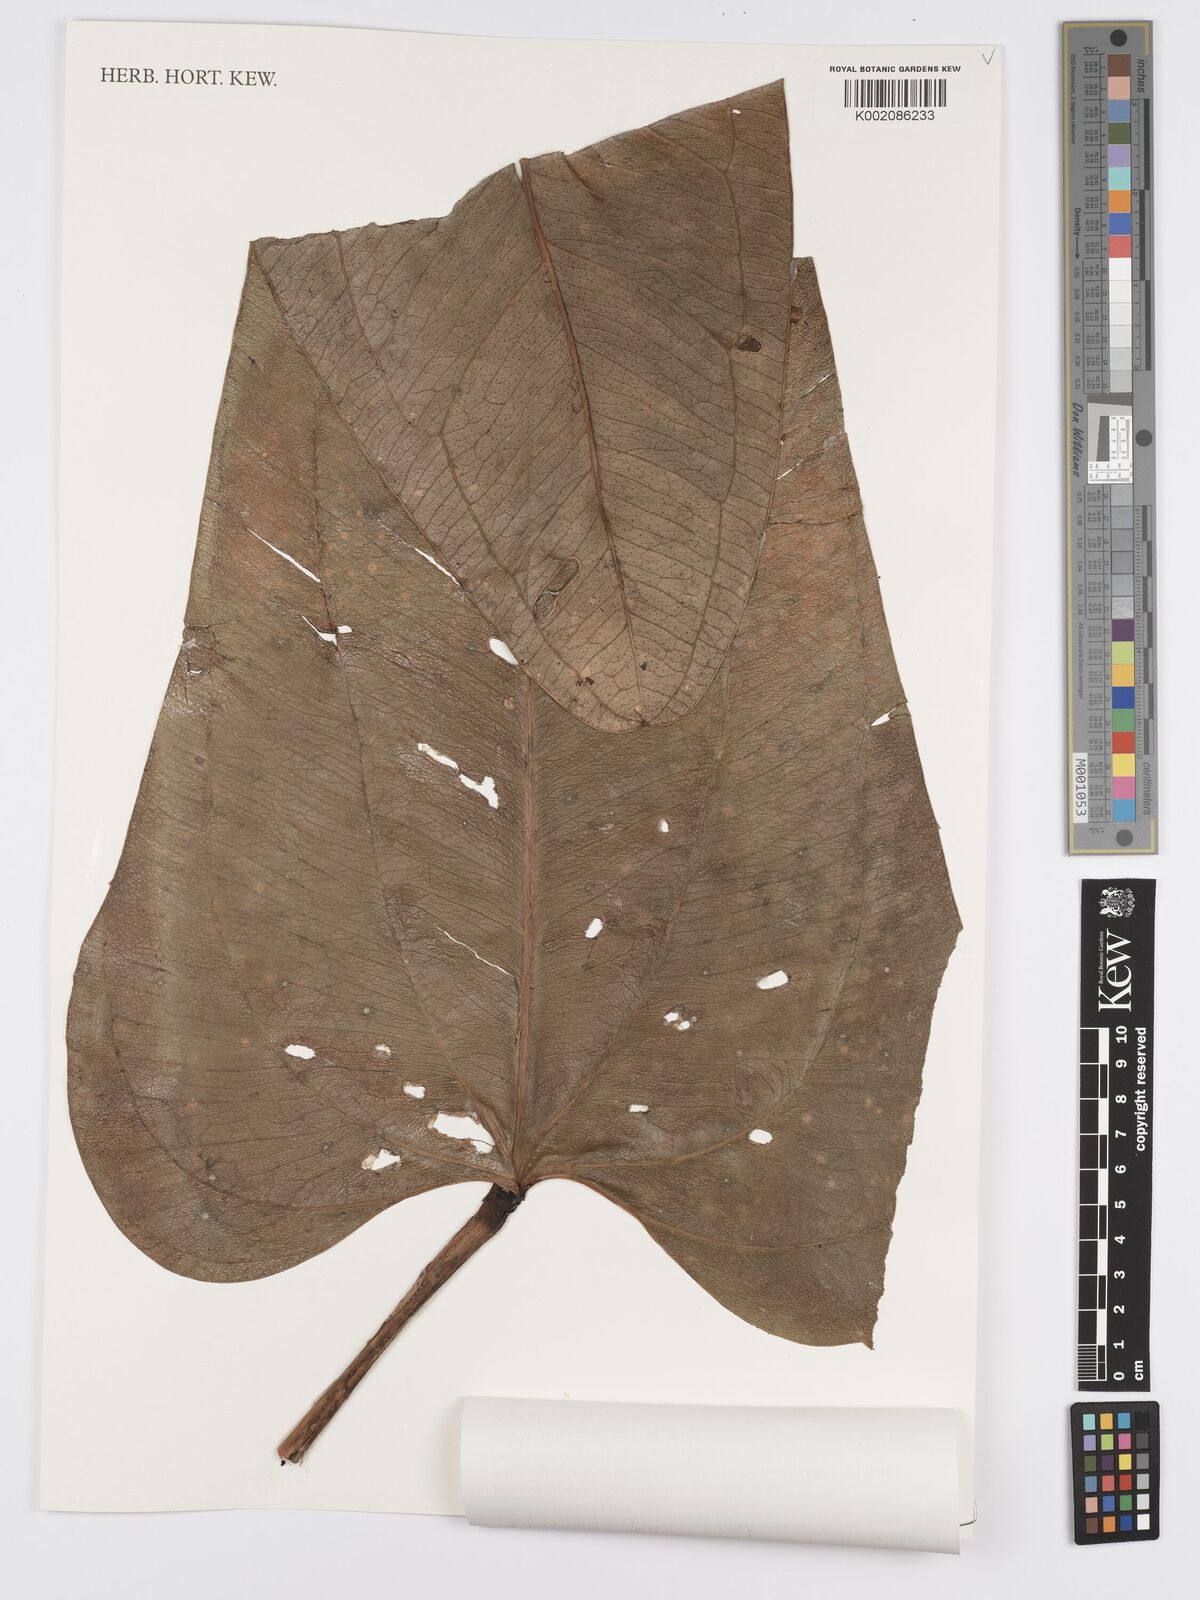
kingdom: Plantae
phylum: Tracheophyta
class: Liliopsida
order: Alismatales
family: Araceae
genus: Anthurium
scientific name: Anthurium
